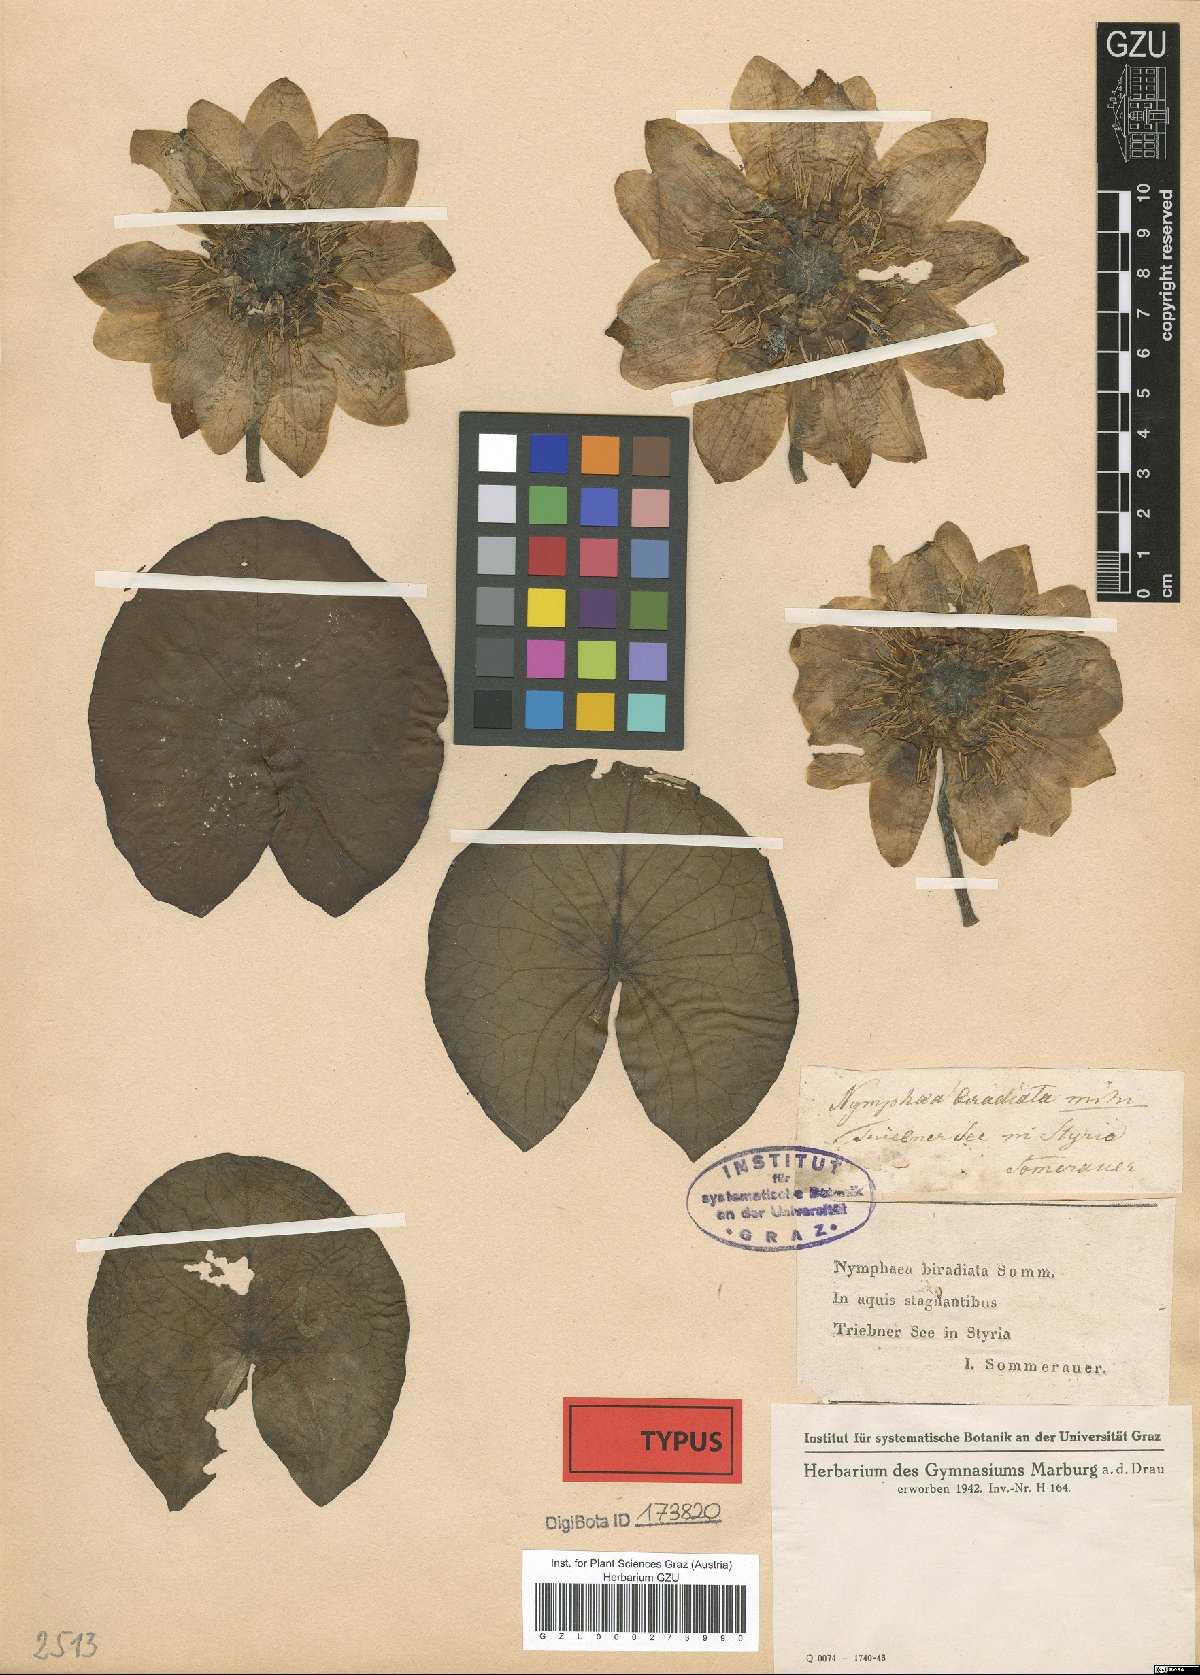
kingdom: Plantae
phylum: Tracheophyta
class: Magnoliopsida
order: Nymphaeales
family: Nymphaeaceae
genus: Nymphaea
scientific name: Nymphaea alba
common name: White water-lily
